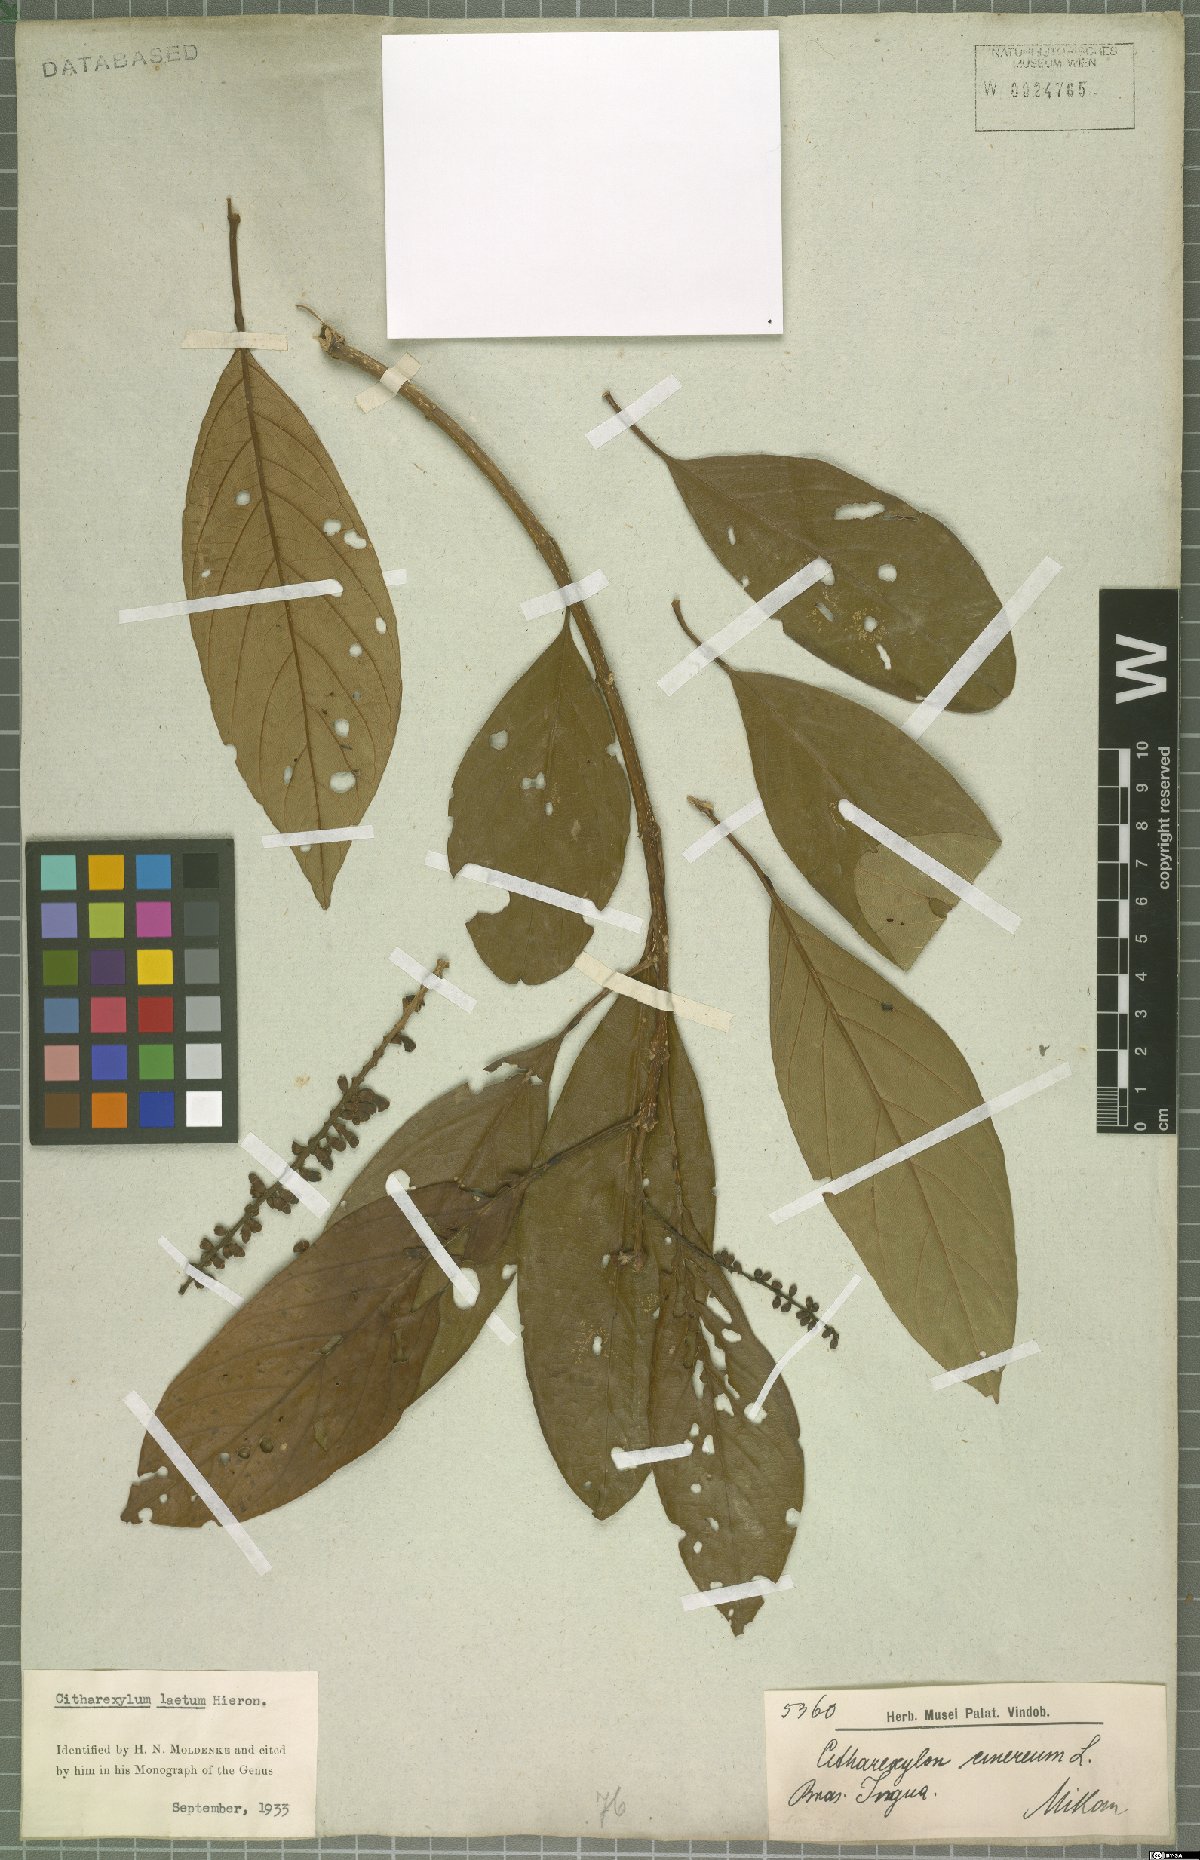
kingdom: Plantae
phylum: Tracheophyta
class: Magnoliopsida
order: Lamiales
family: Verbenaceae
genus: Citharexylum
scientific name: Citharexylum myrianthum
